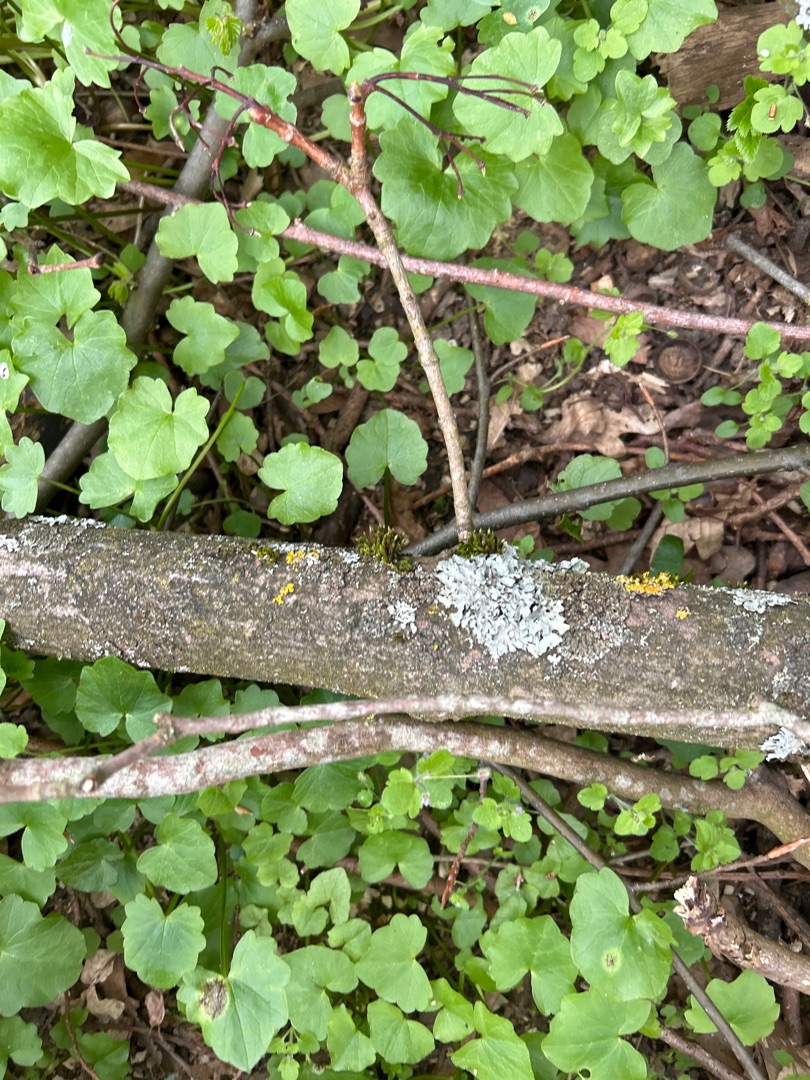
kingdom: Fungi
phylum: Ascomycota
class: Lecanoromycetes
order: Lecanorales
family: Parmeliaceae
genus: Parmelia
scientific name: Parmelia sulcata
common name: Rynket skållav
